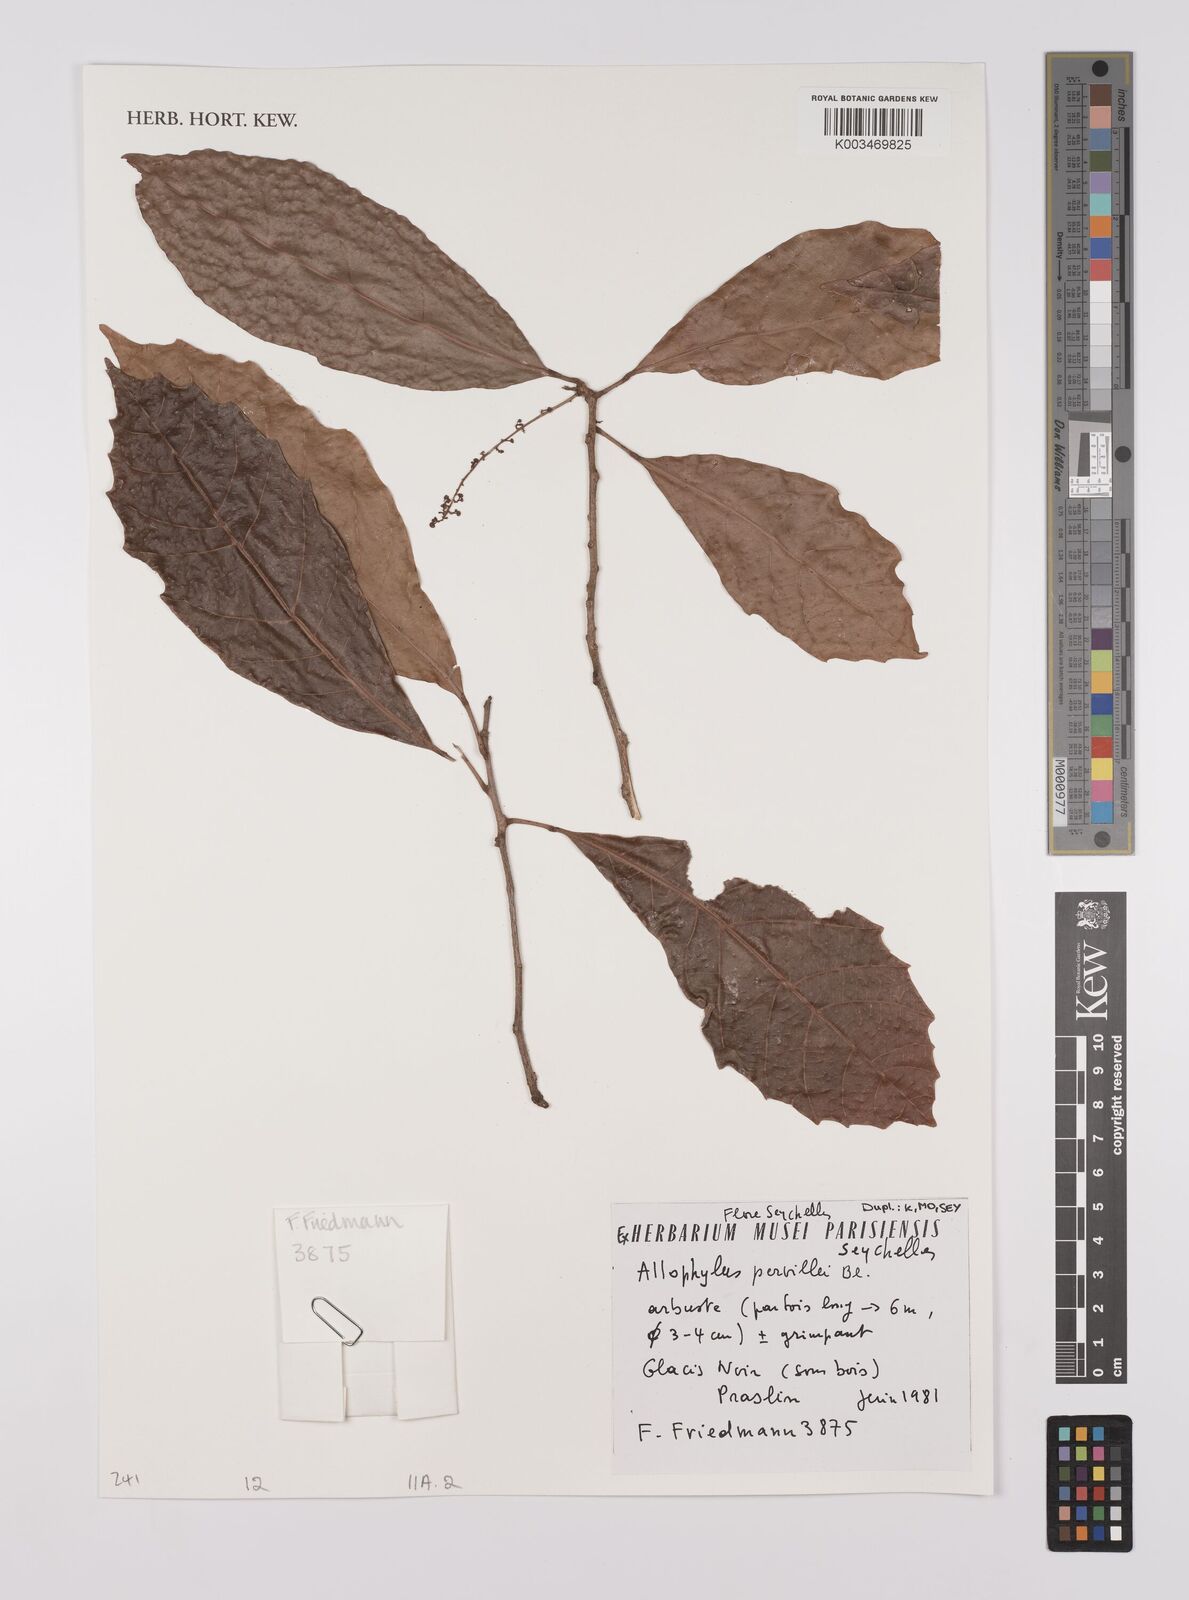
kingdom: Plantae
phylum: Tracheophyta
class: Magnoliopsida
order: Sapindales
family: Sapindaceae
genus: Allophylus
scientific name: Allophylus pervillei
